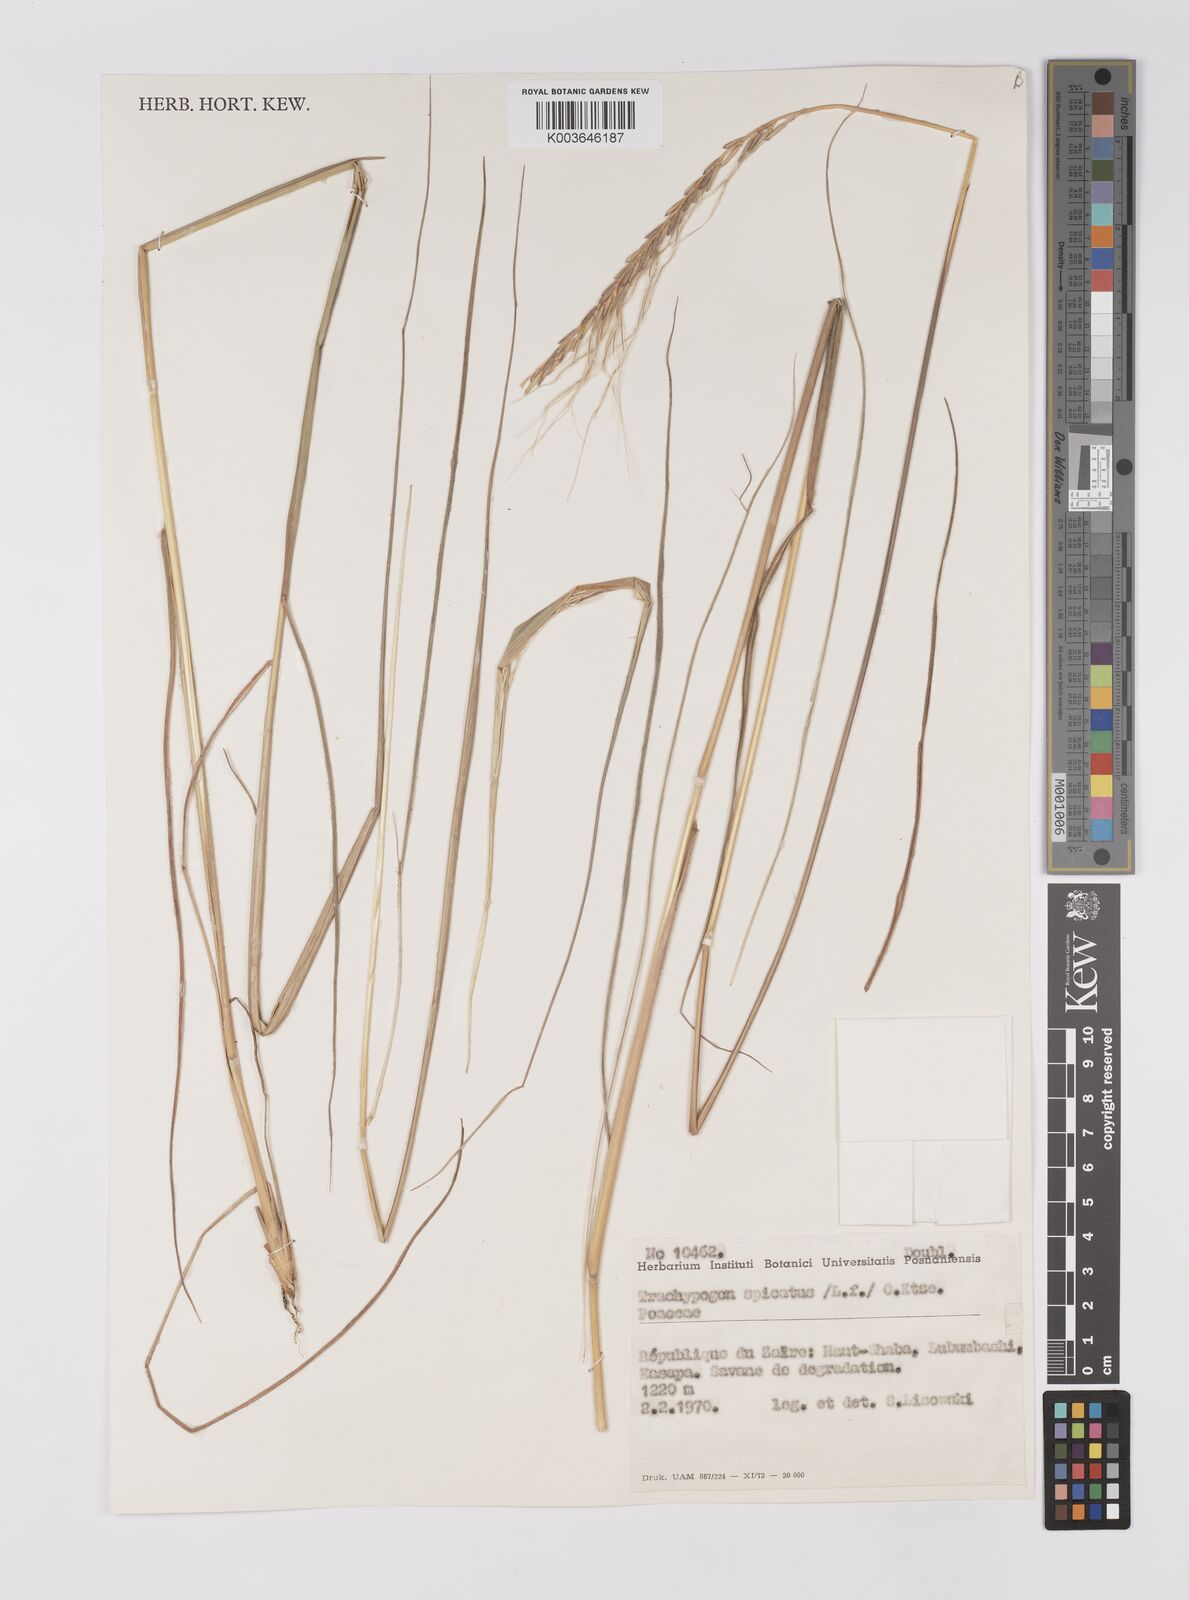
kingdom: Plantae
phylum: Tracheophyta
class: Liliopsida
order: Poales
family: Poaceae
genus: Trachypogon
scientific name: Trachypogon spicatus
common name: Crinkle-awn
